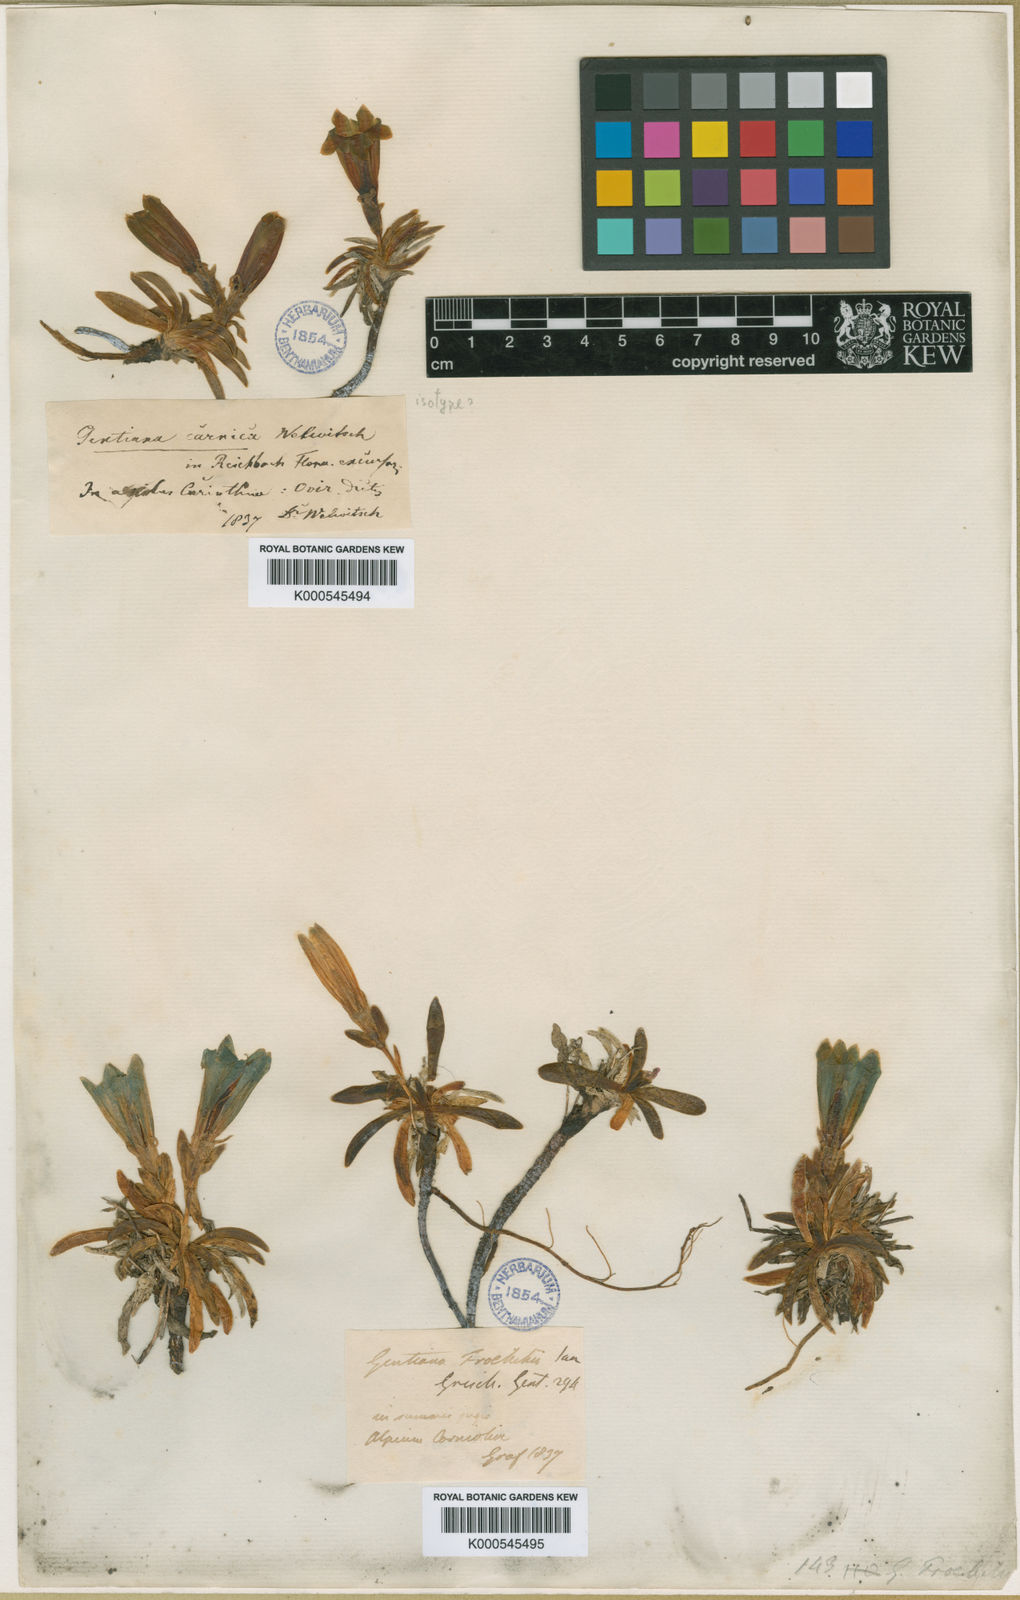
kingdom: Plantae
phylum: Tracheophyta
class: Magnoliopsida
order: Gentianales
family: Gentianaceae
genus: Gentiana
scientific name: Gentiana froelichii
